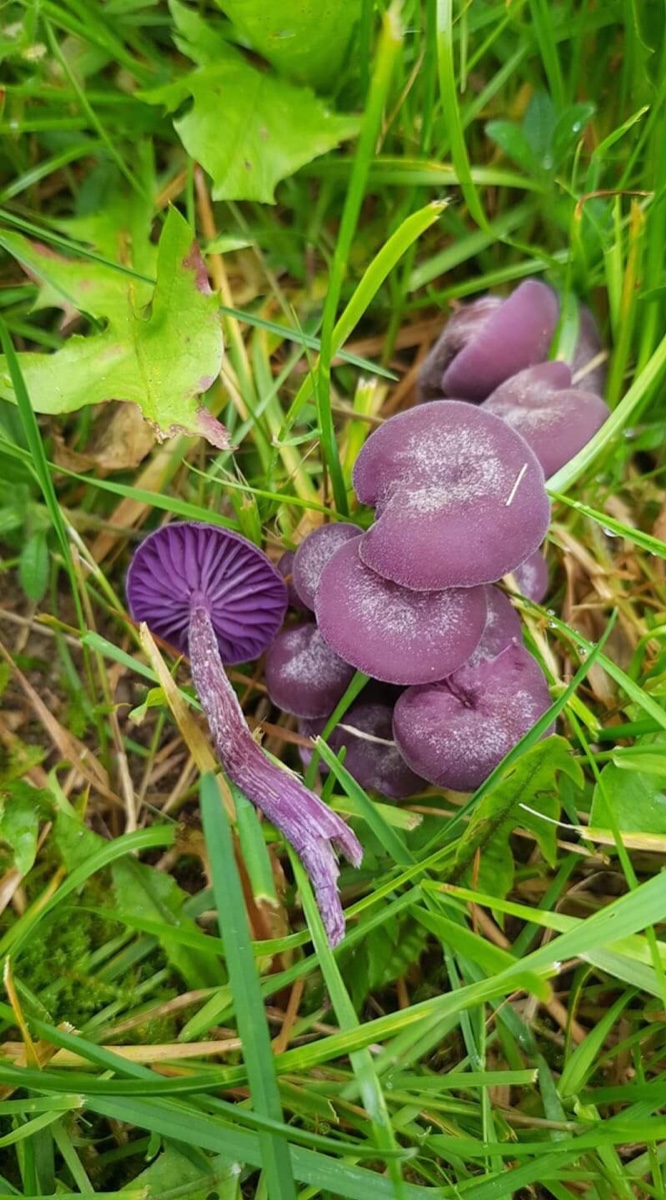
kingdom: Fungi
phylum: Basidiomycota
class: Agaricomycetes
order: Agaricales
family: Hydnangiaceae
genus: Laccaria
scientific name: Laccaria amethystina
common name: violet ametysthat
